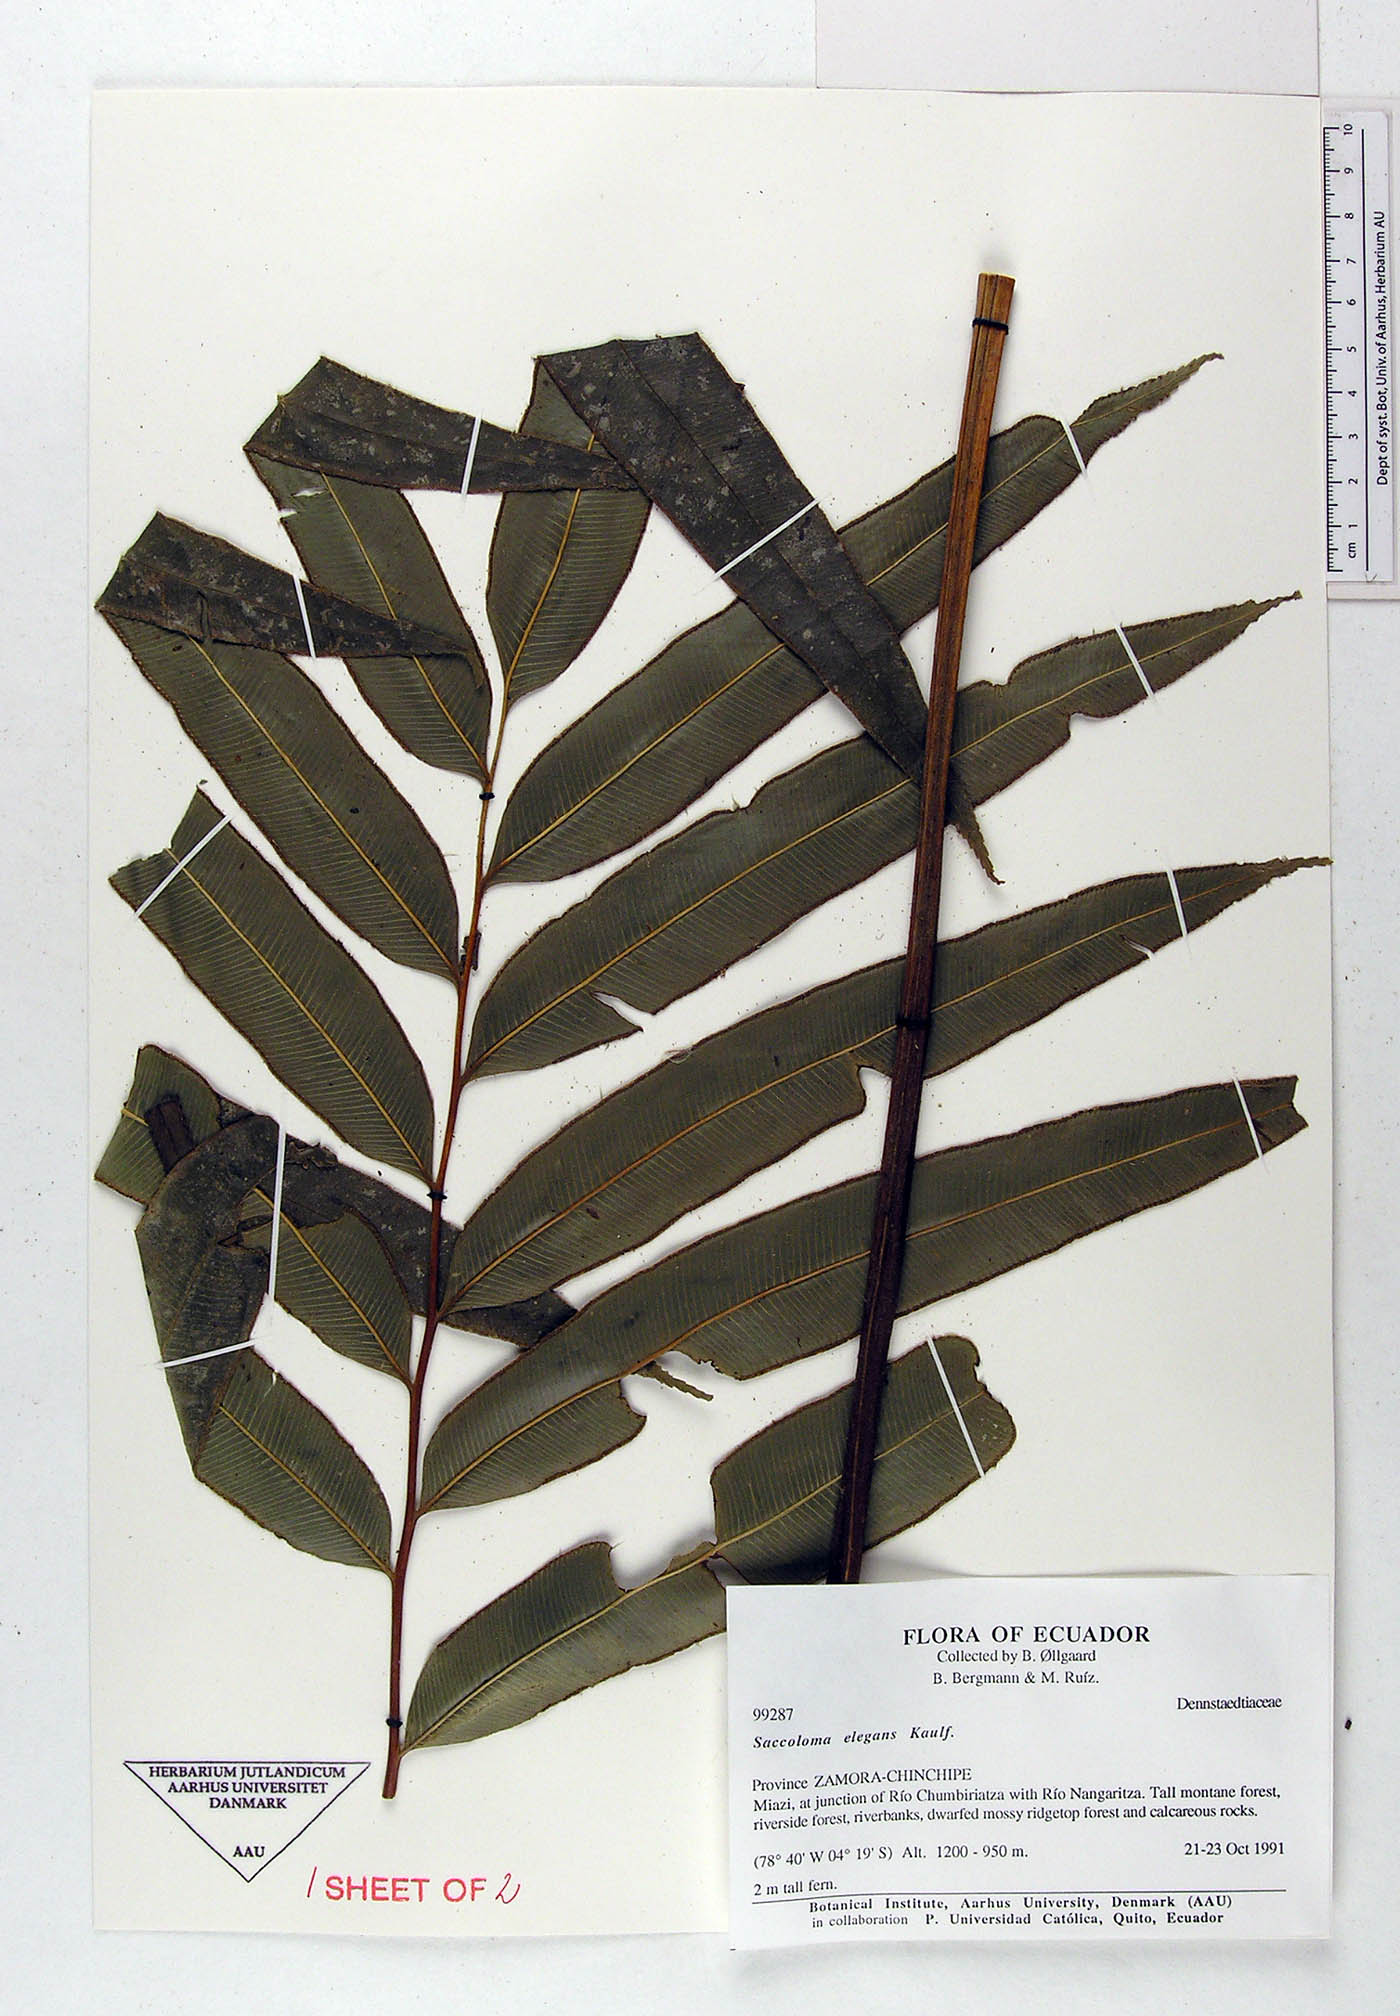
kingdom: Plantae
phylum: Tracheophyta
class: Polypodiopsida
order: Polypodiales
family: Saccolomataceae
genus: Saccoloma
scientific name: Saccoloma elegans
